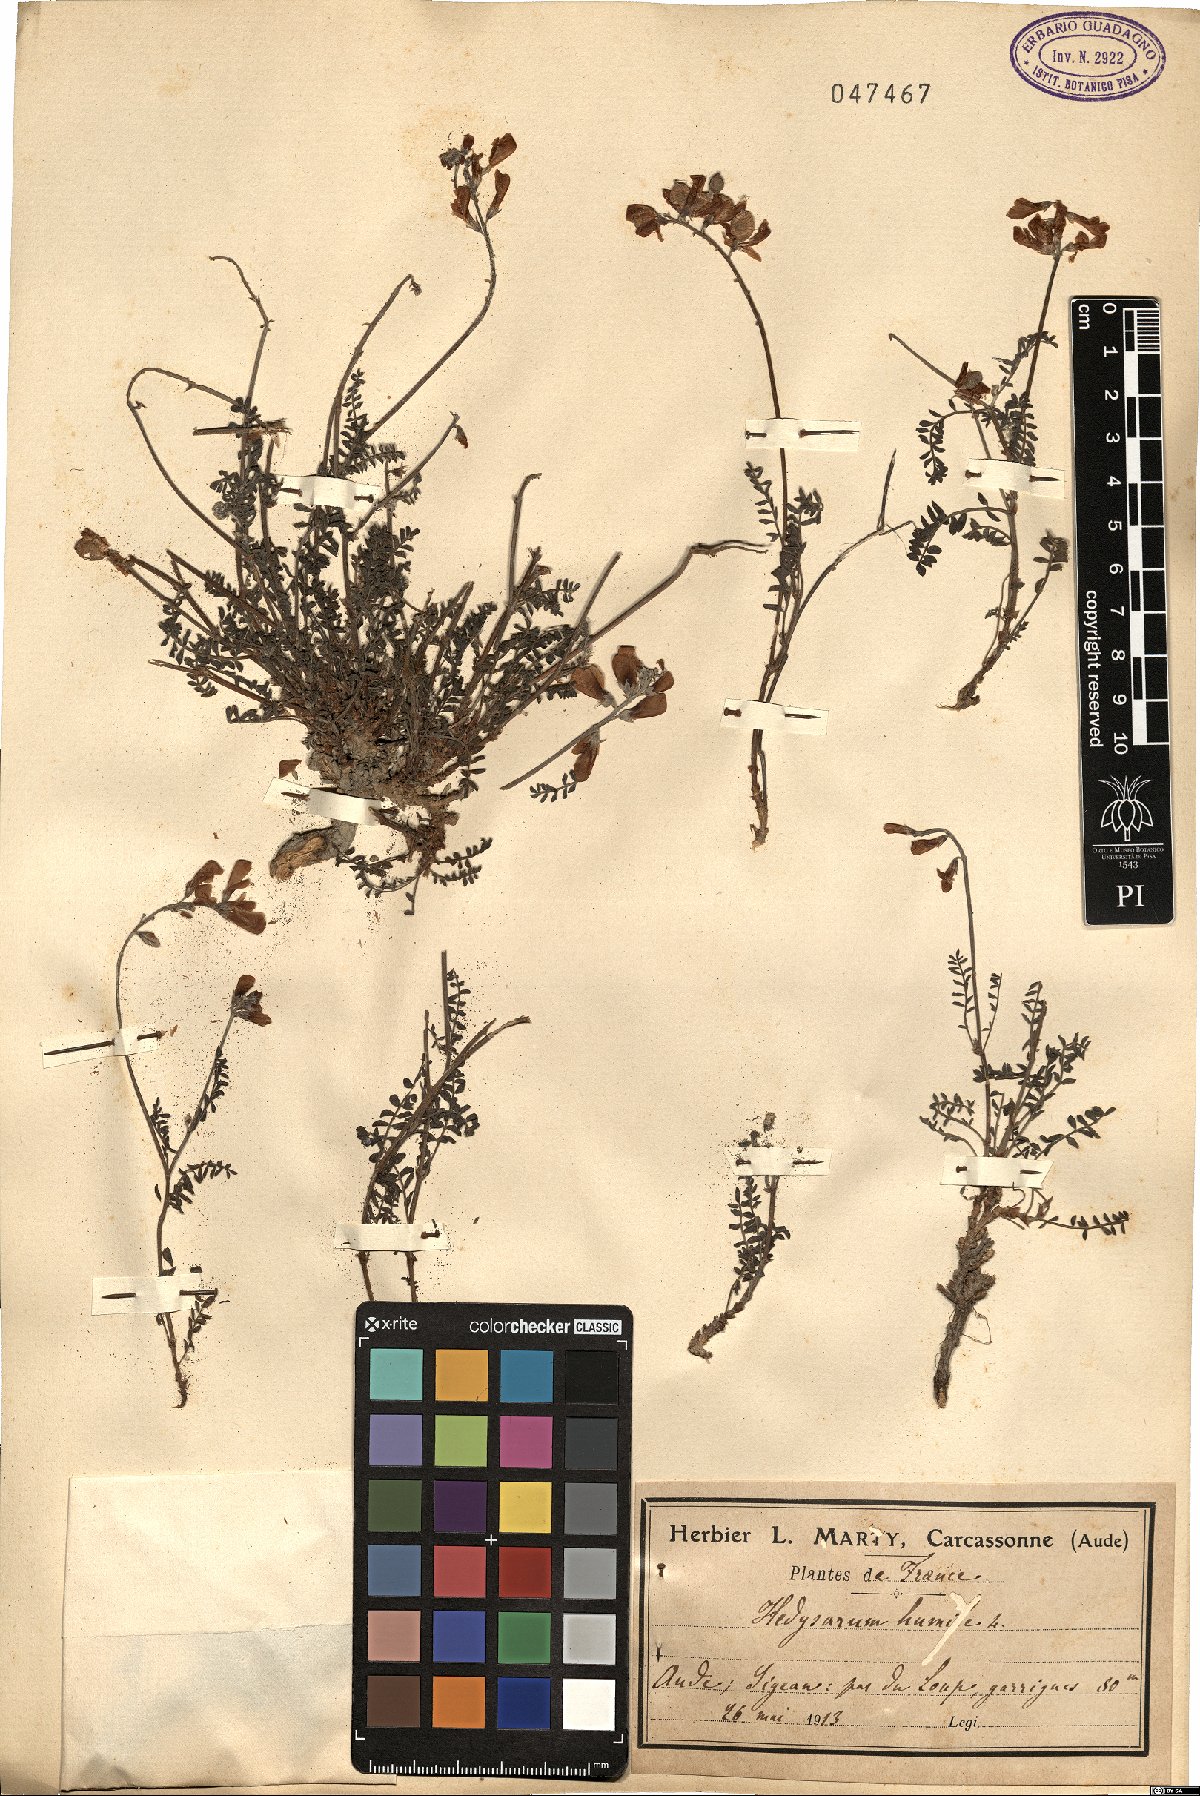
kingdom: Plantae
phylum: Tracheophyta
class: Magnoliopsida
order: Fabales
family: Fabaceae
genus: Hedysarum
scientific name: Hedysarum humile
